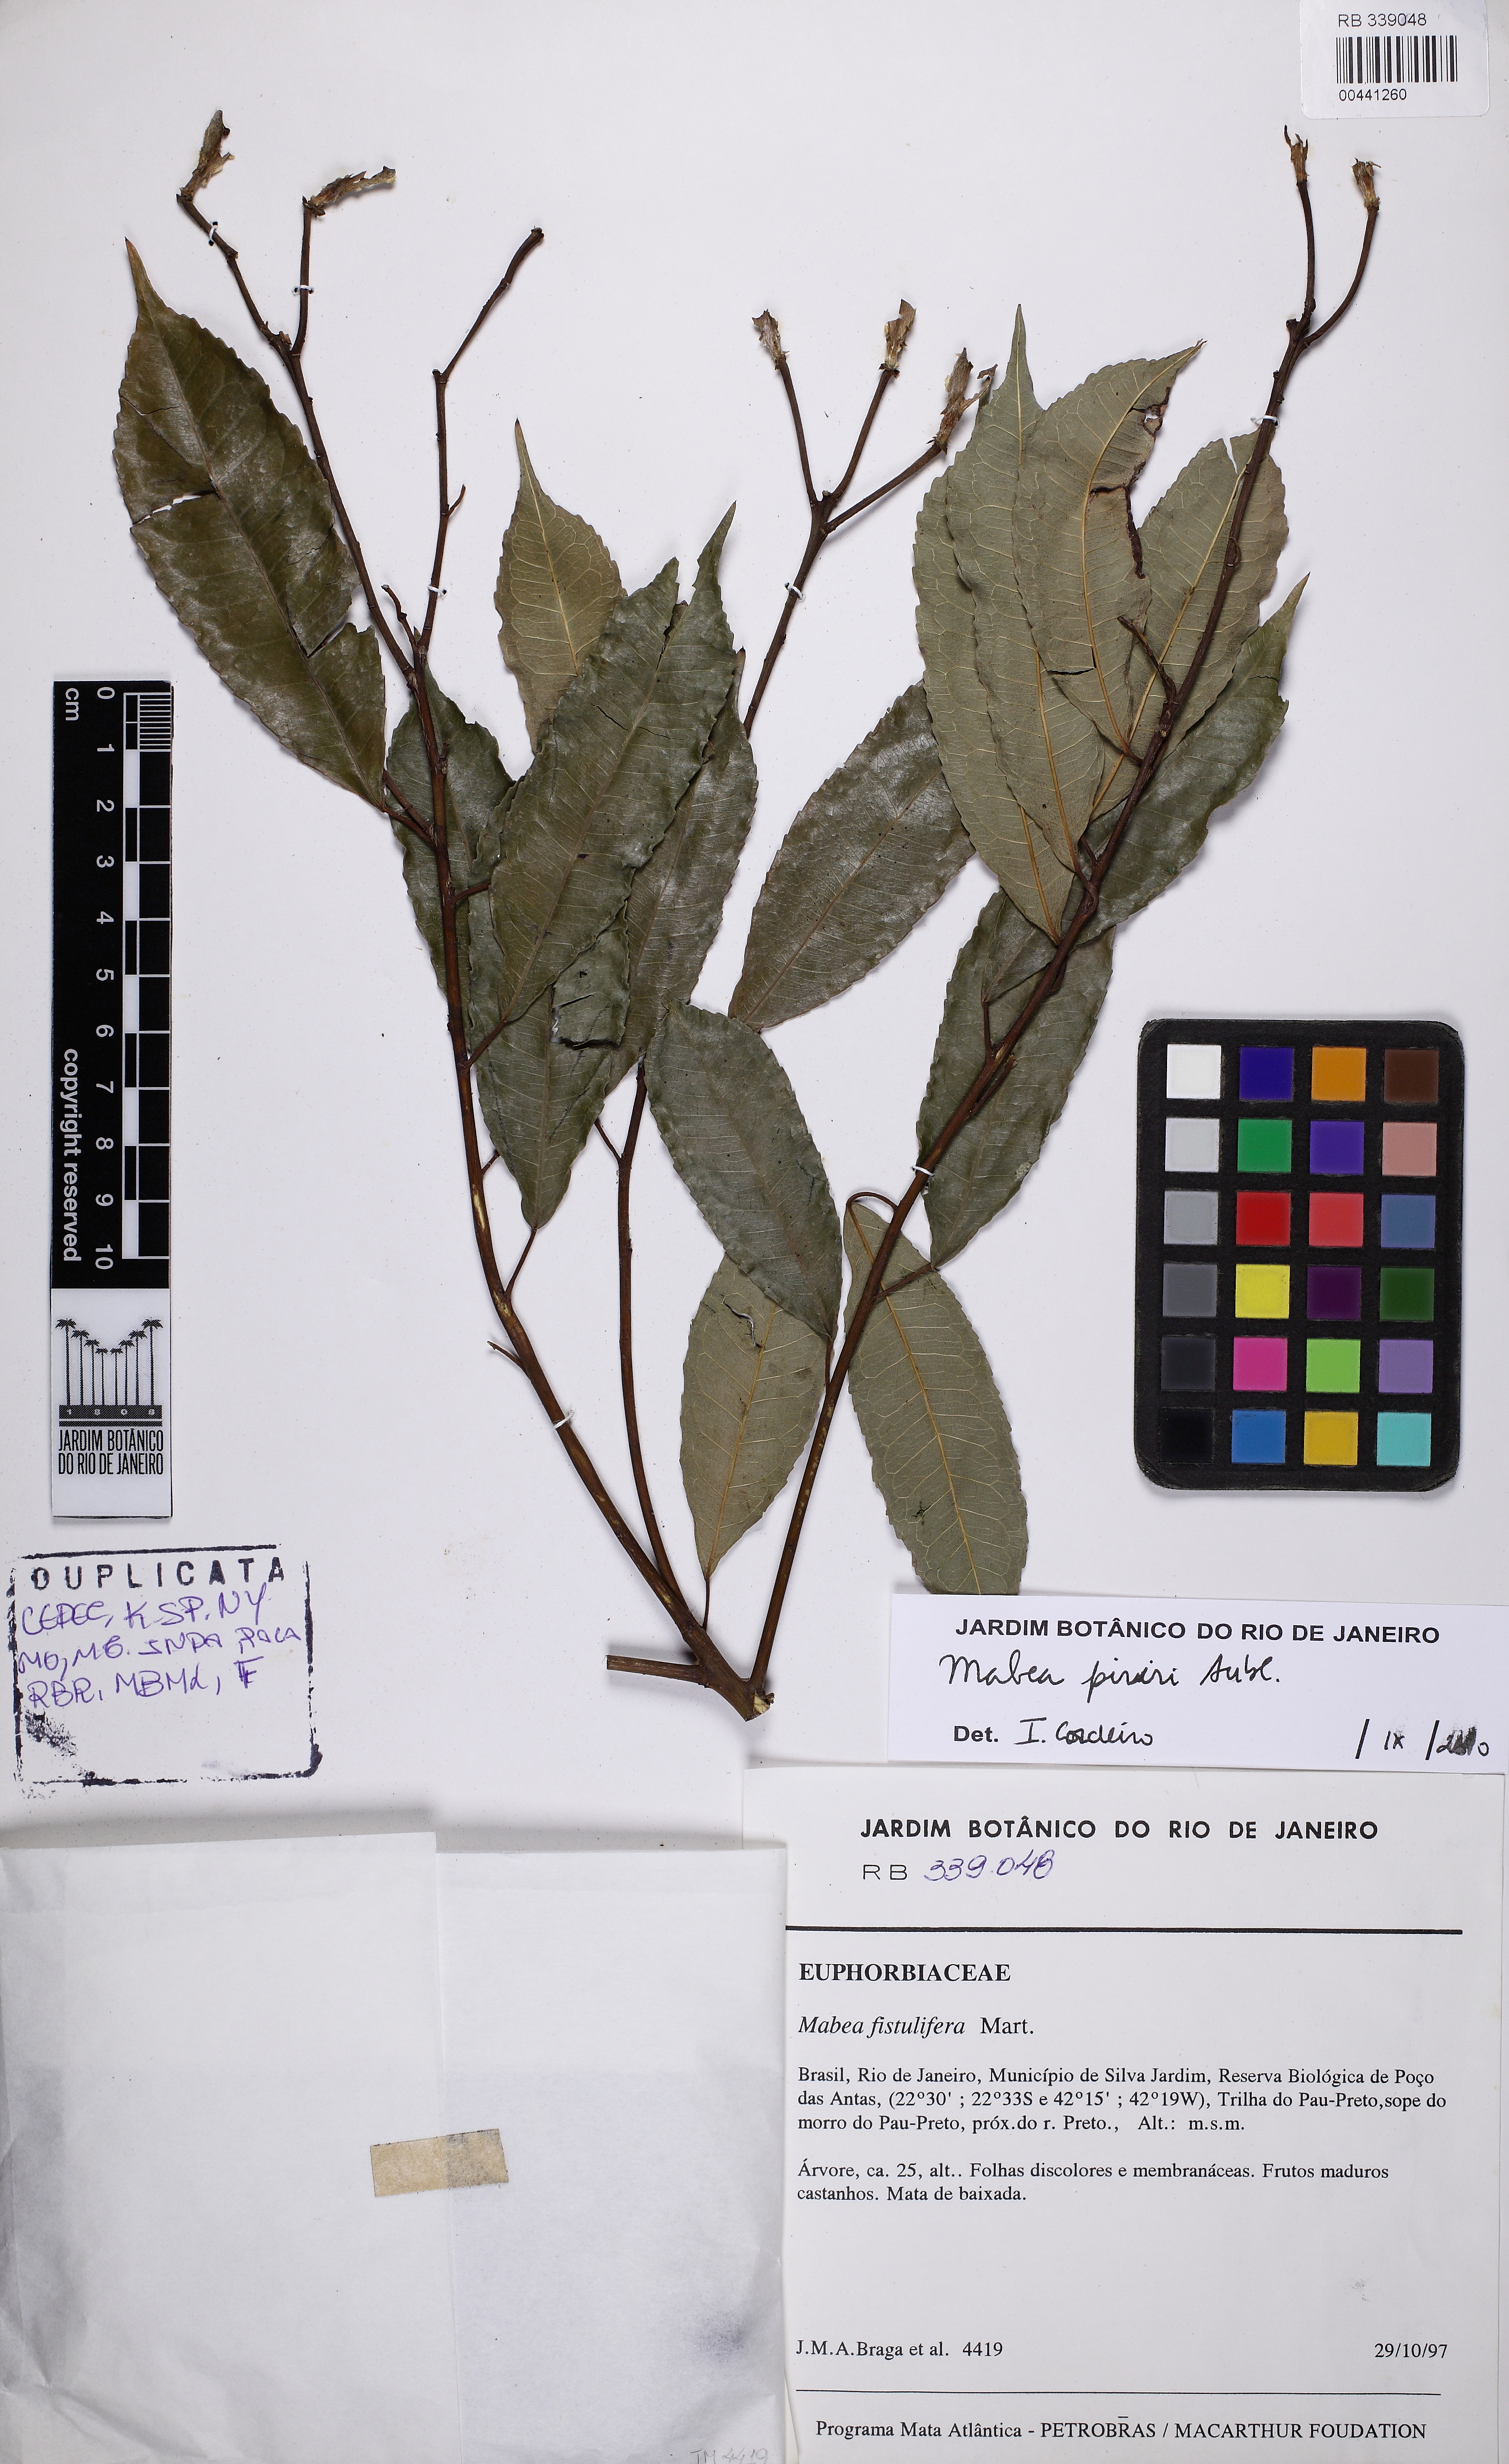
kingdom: Plantae
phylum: Tracheophyta
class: Magnoliopsida
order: Malpighiales
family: Euphorbiaceae
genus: Mabea
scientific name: Mabea piriri
